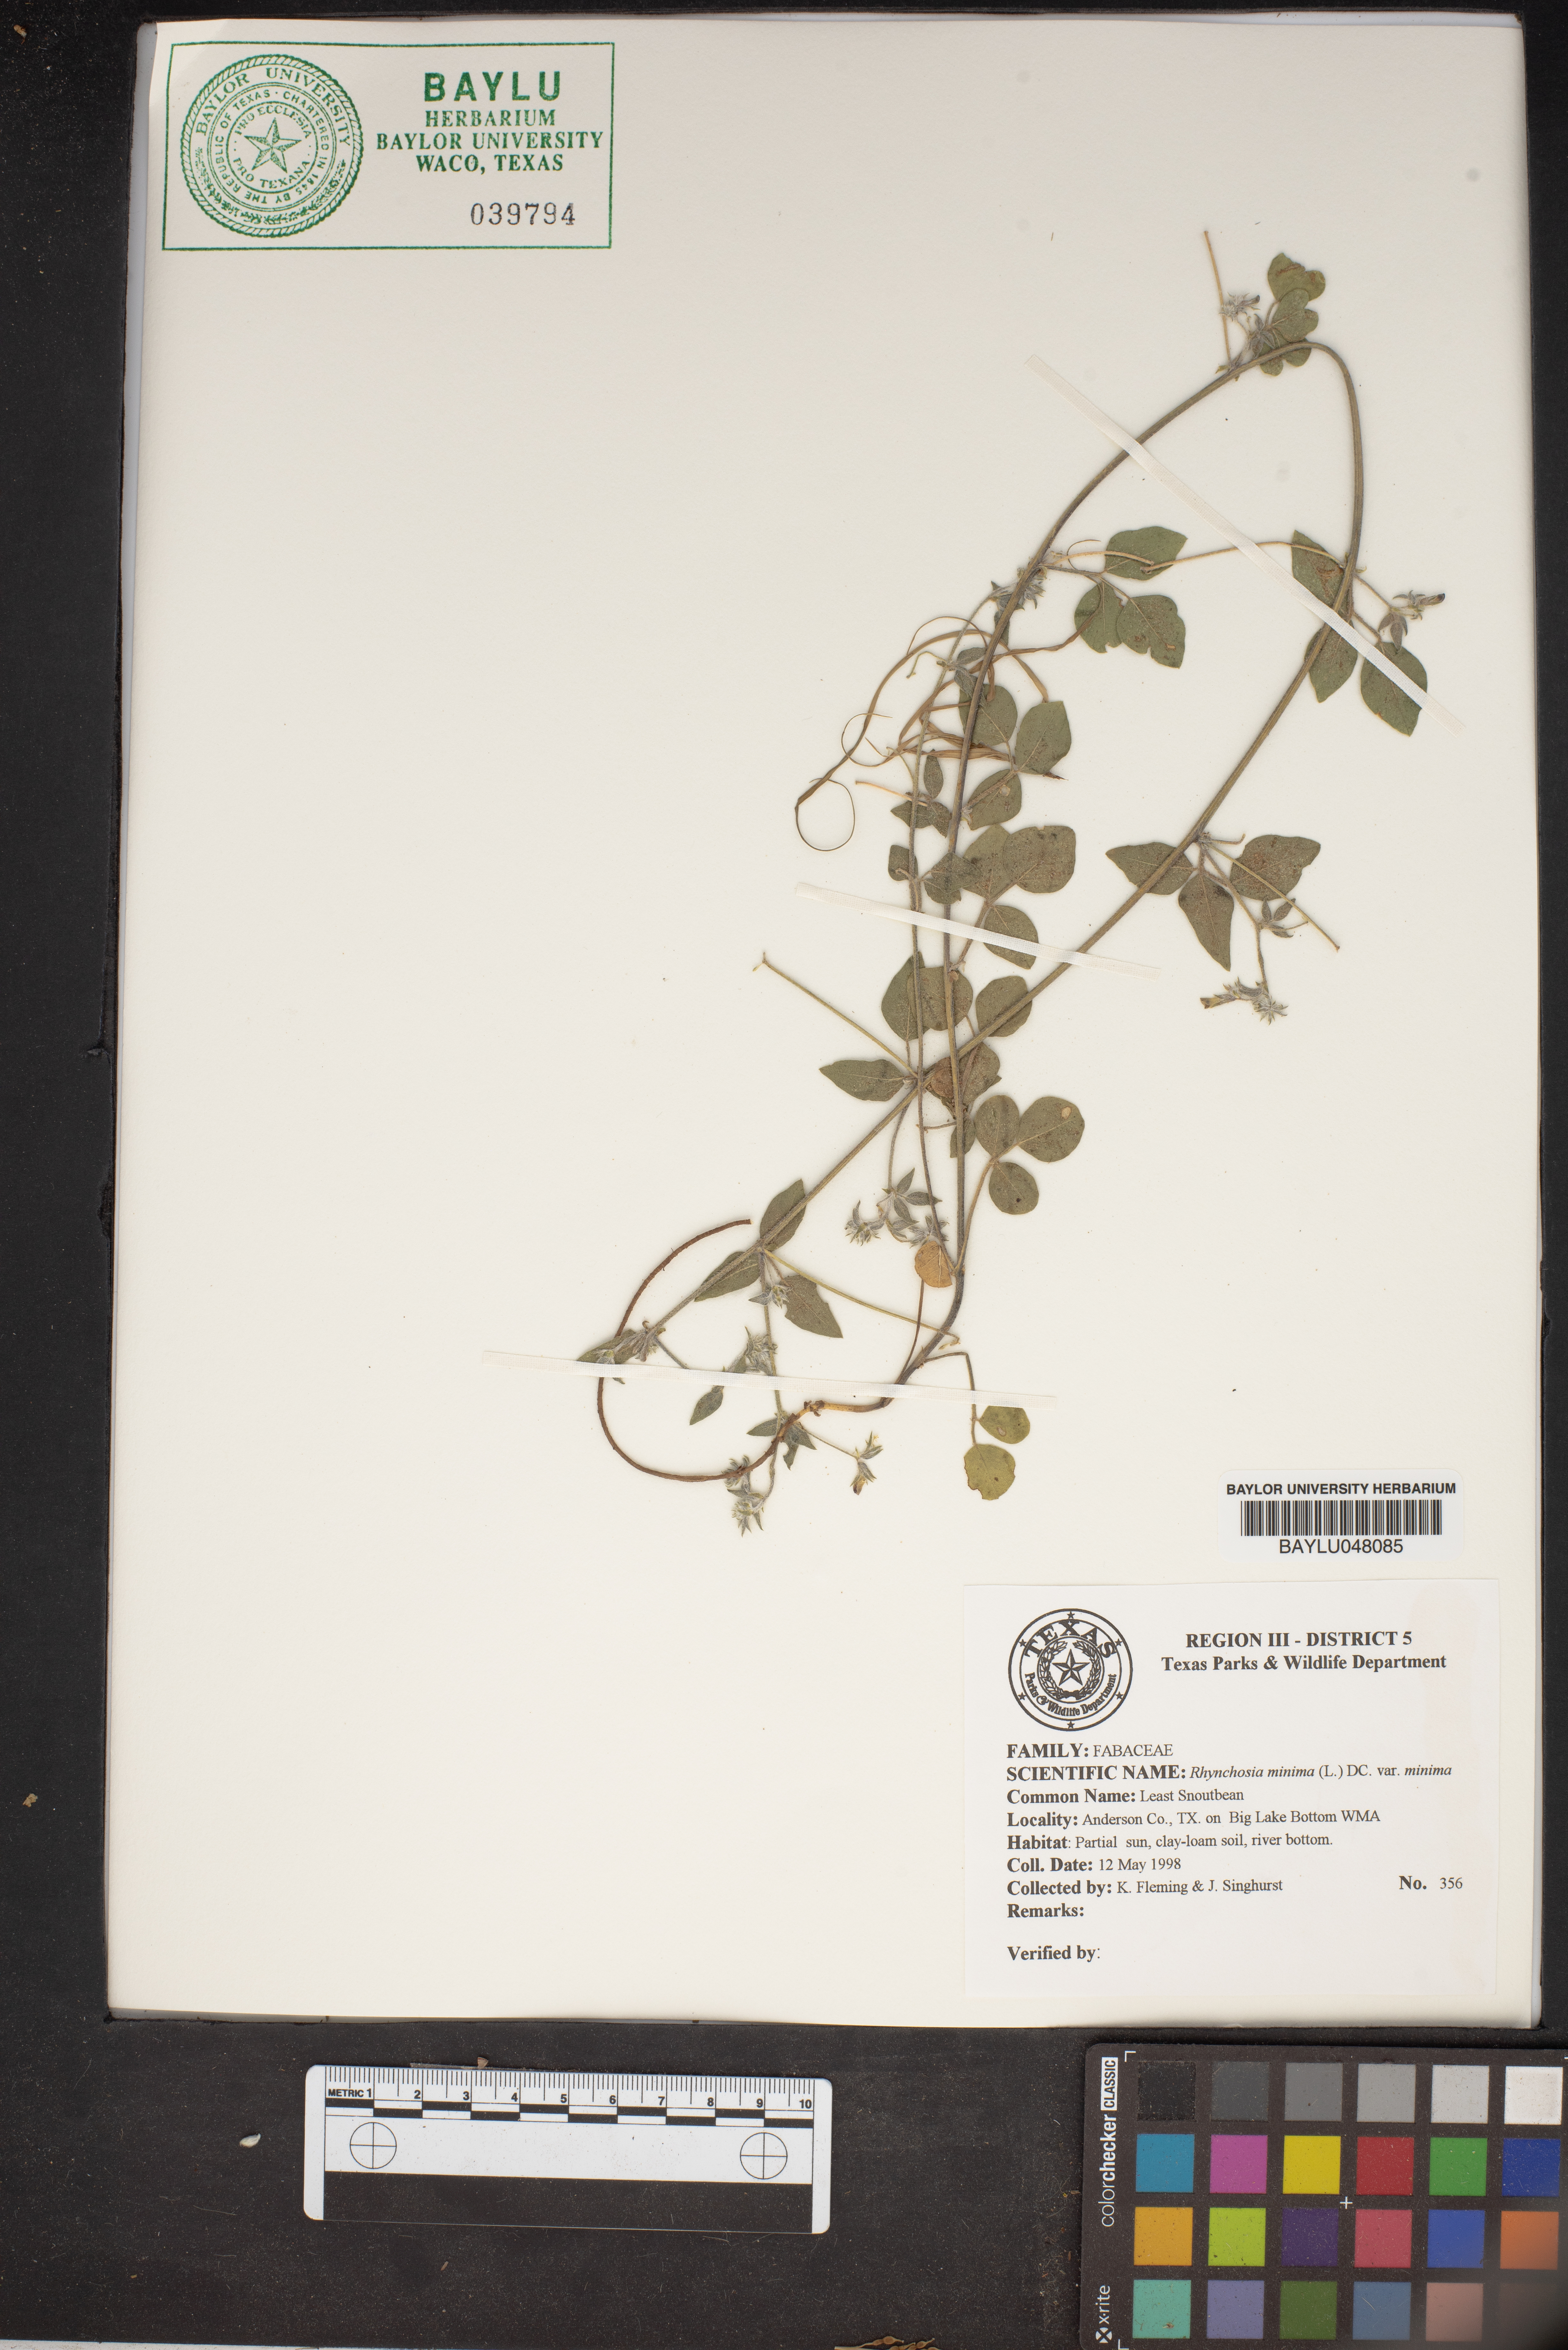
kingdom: Plantae
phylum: Tracheophyta
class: Magnoliopsida
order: Fabales
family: Fabaceae
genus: Rhynchosia
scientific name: Rhynchosia minima
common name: Least snoutbean
